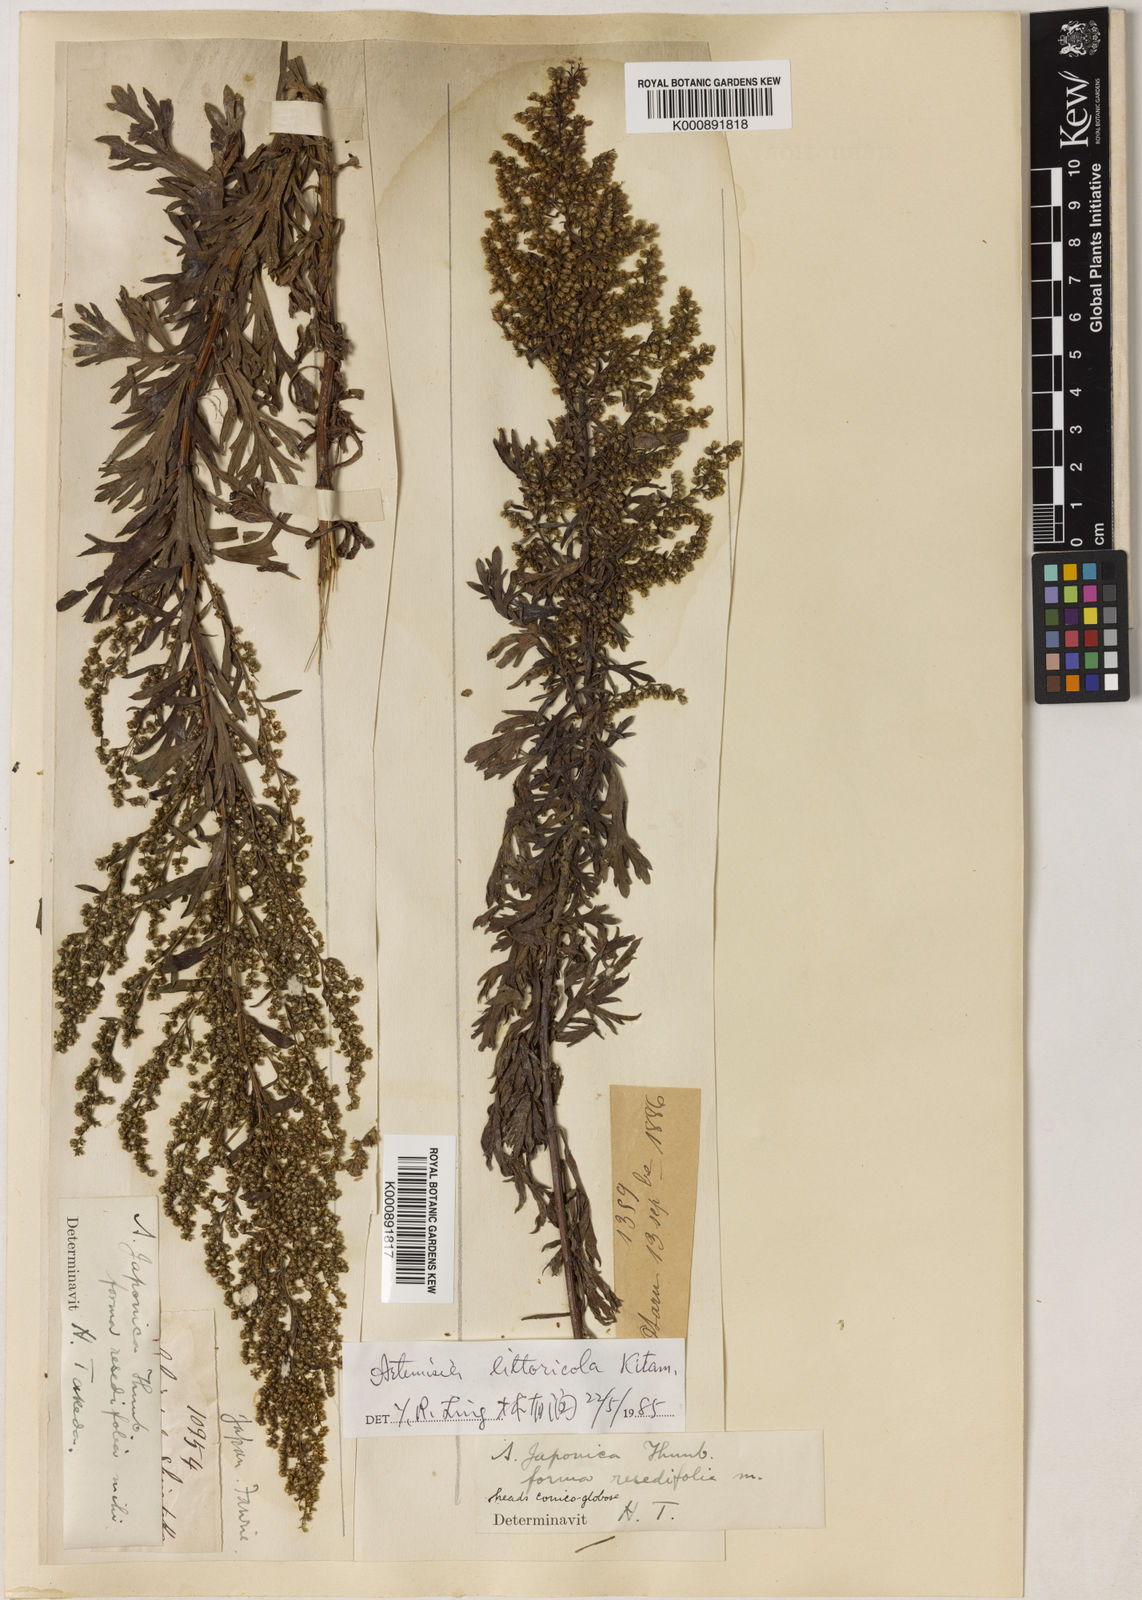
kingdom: Plantae
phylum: Tracheophyta
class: Magnoliopsida
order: Asterales
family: Asteraceae
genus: Artemisia
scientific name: Artemisia littoricola
